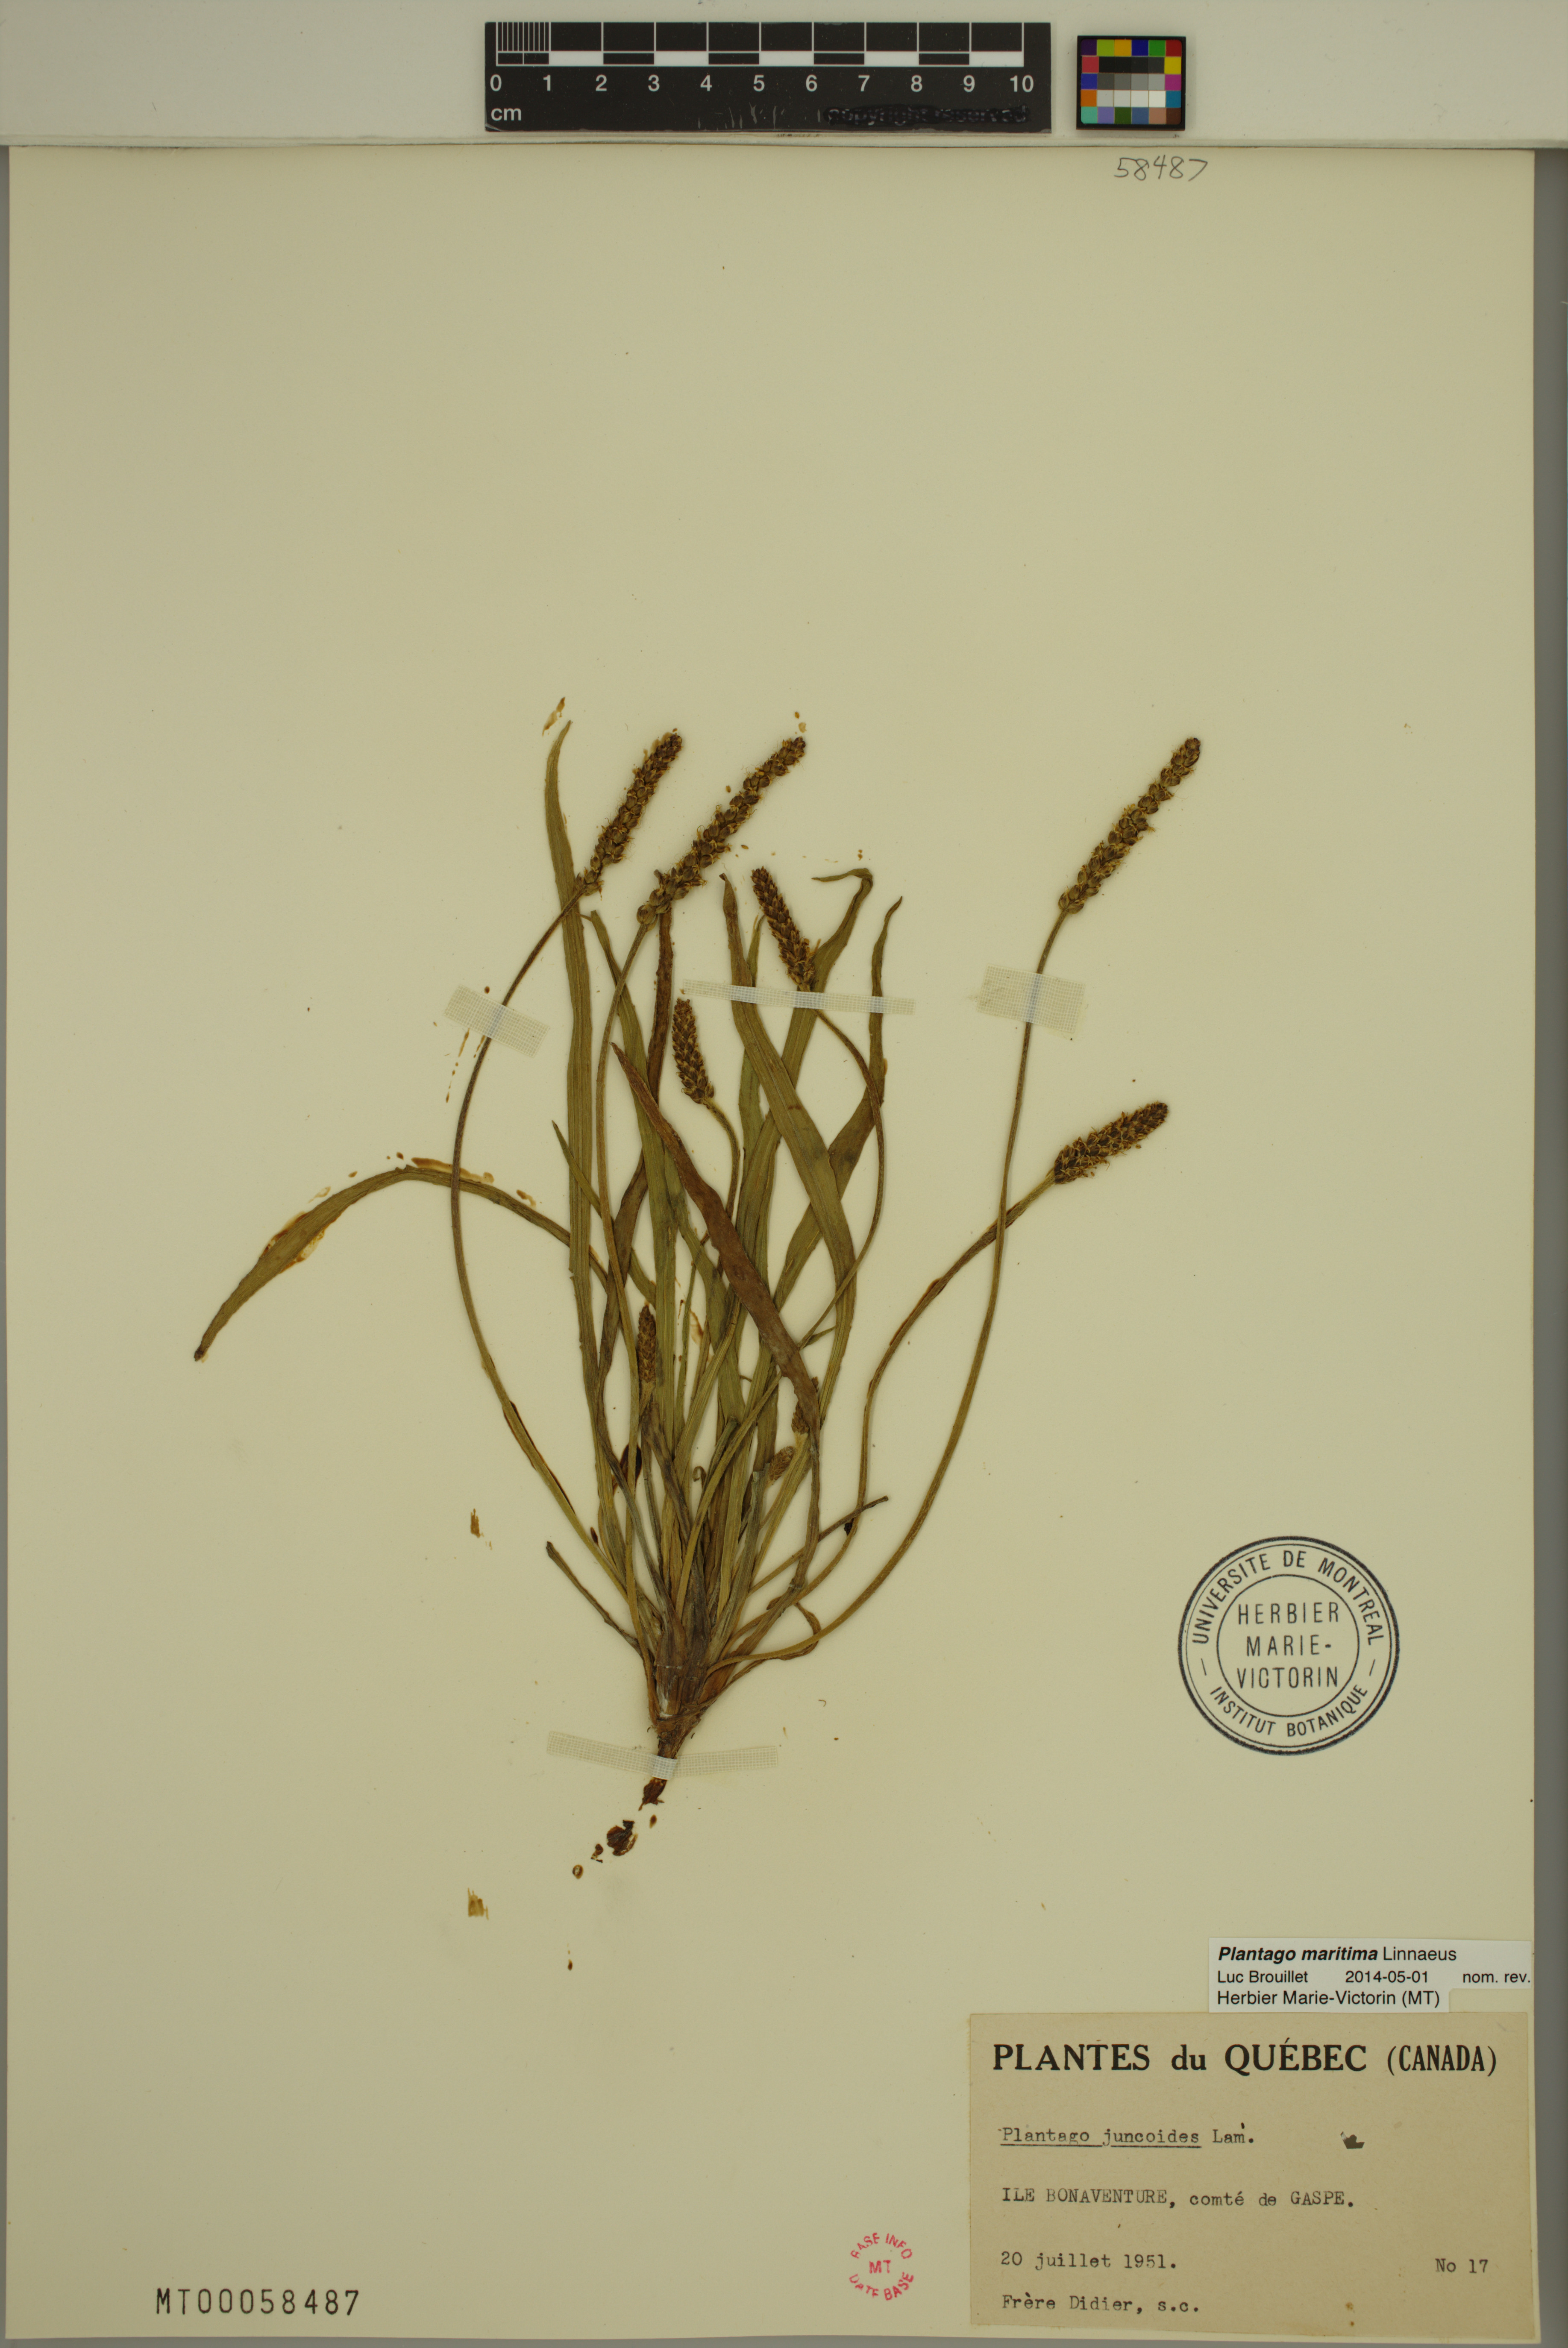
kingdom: Plantae
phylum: Tracheophyta
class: Magnoliopsida
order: Lamiales
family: Plantaginaceae
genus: Plantago
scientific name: Plantago maritima
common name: Sea plantain
